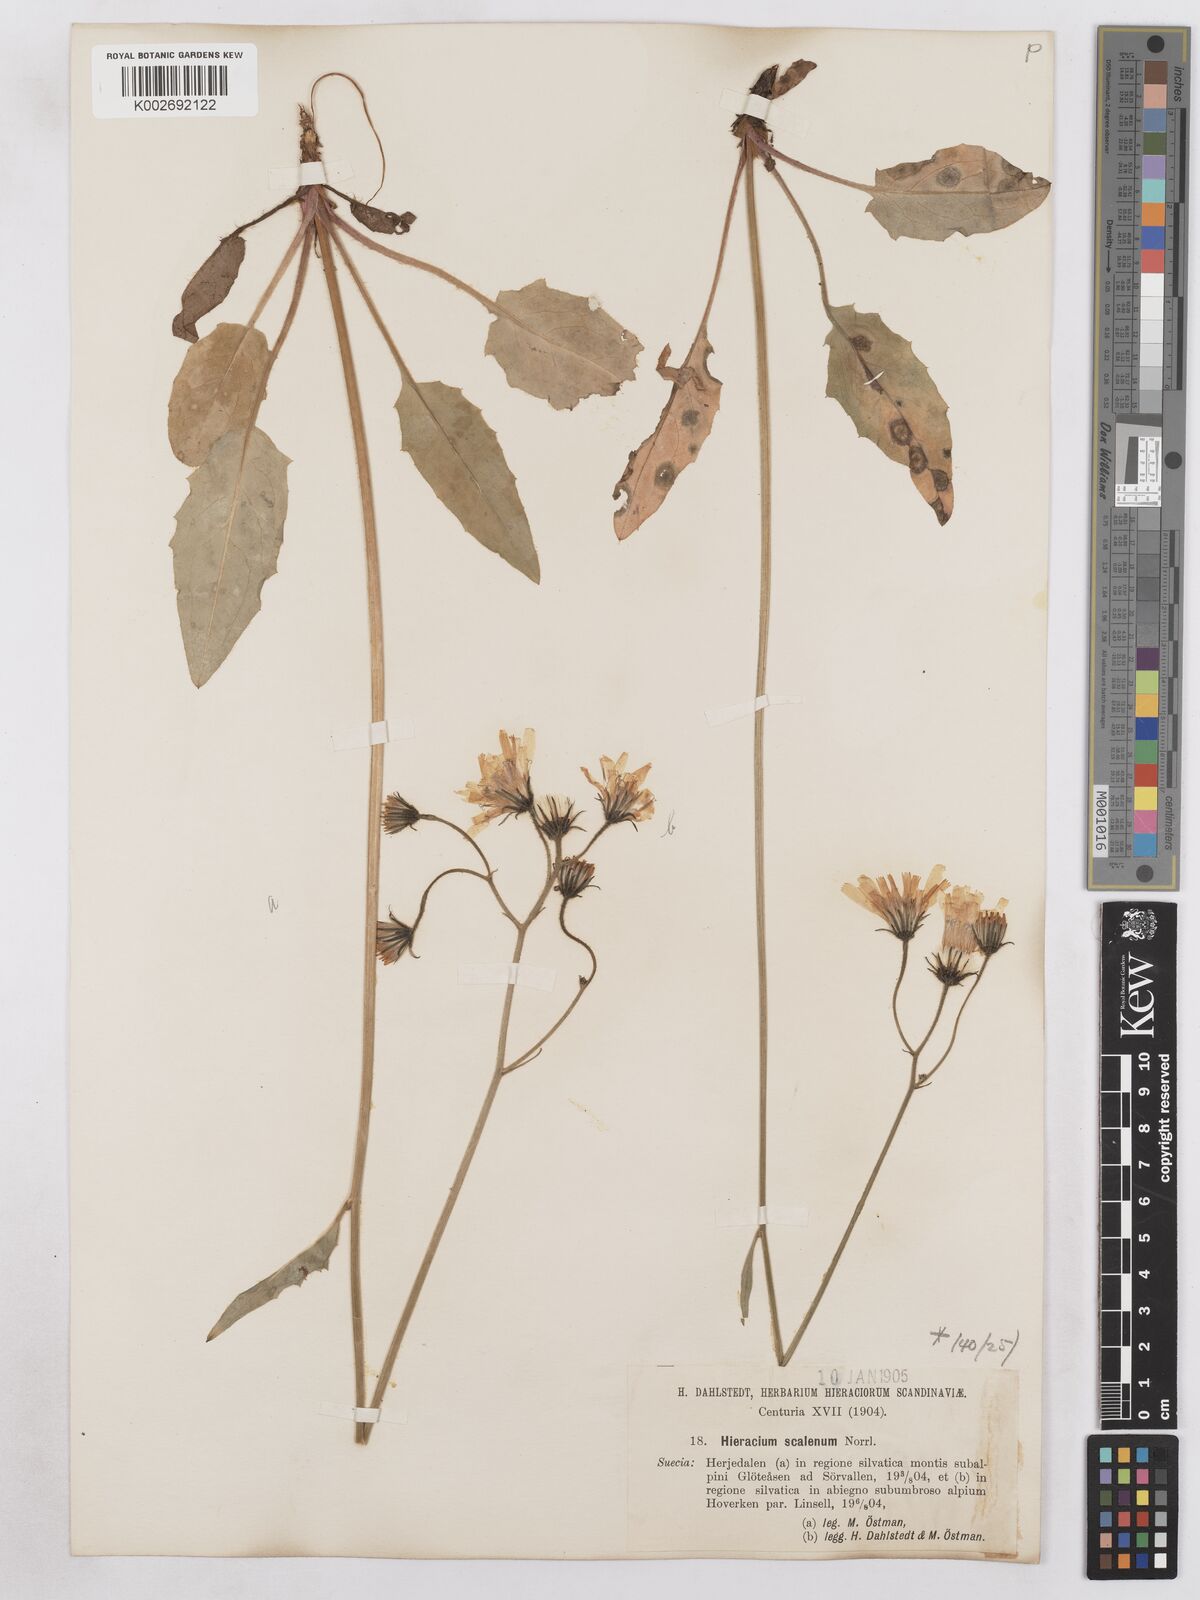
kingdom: Plantae
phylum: Tracheophyta
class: Magnoliopsida
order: Asterales
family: Asteraceae
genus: Hieracium
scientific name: Hieracium fuscocinereum
